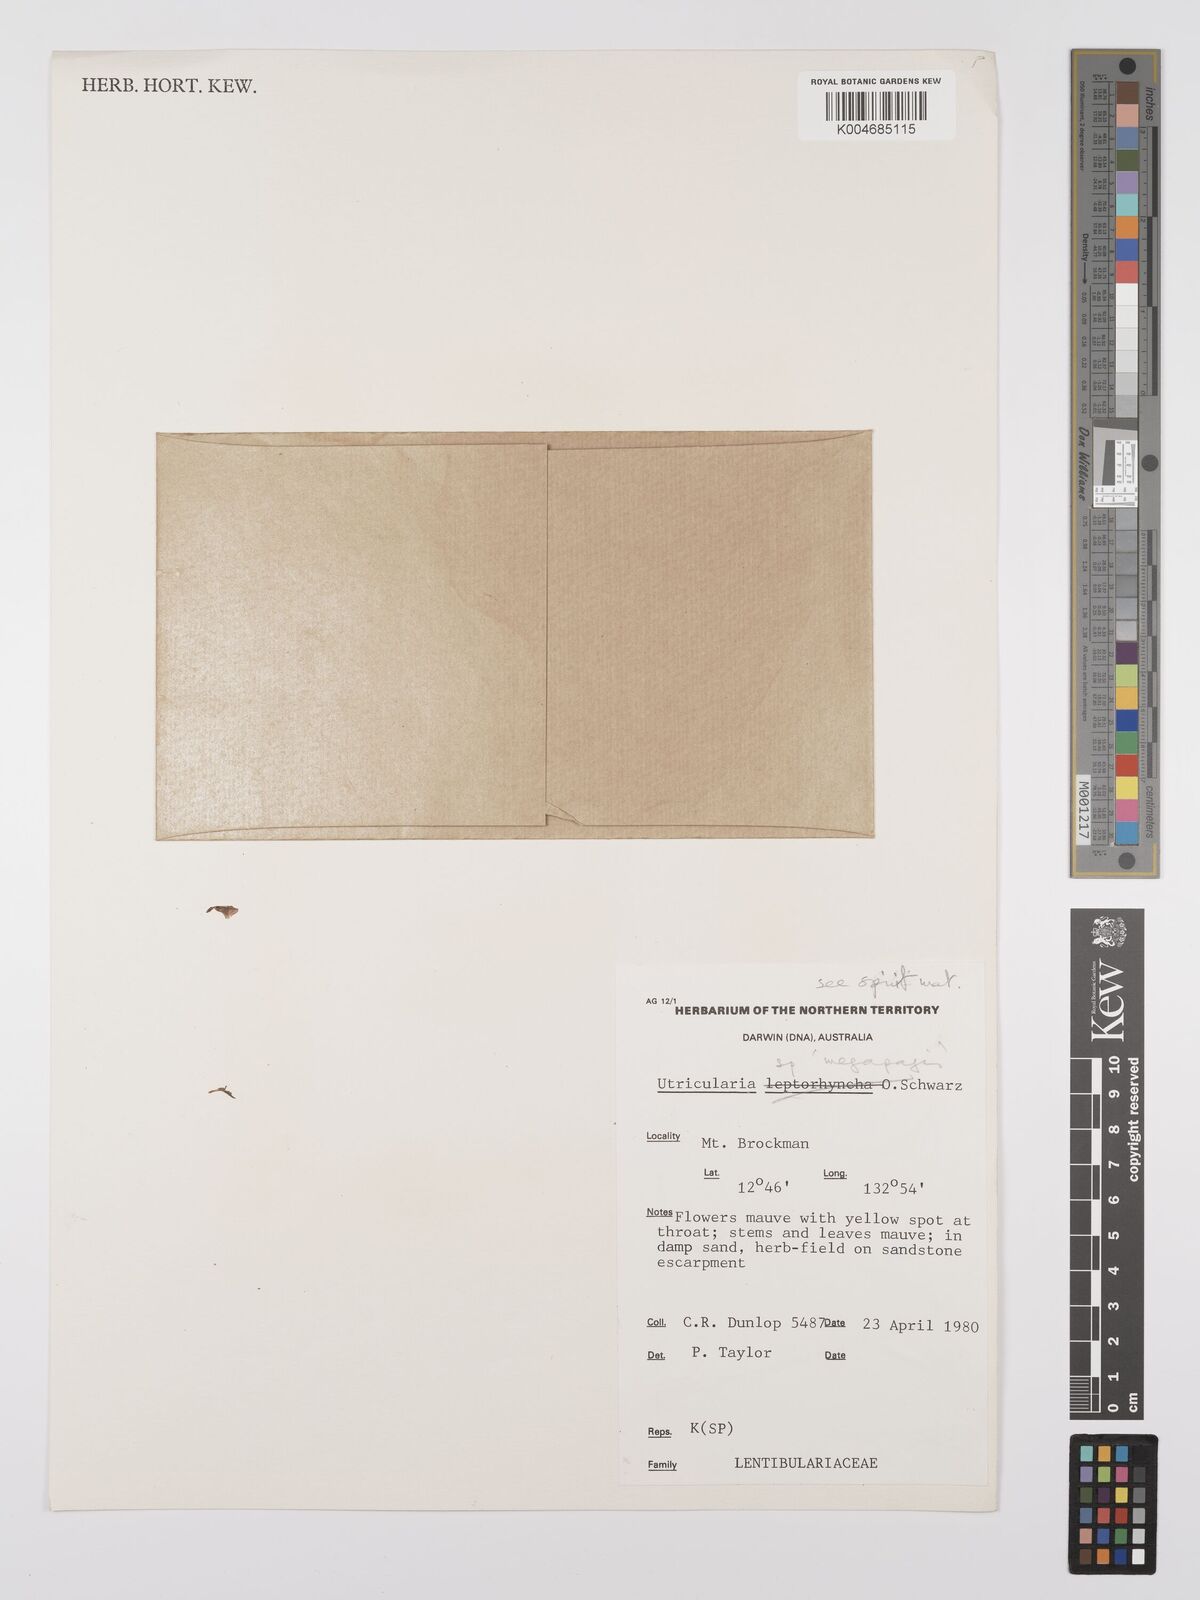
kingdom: Plantae
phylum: Tracheophyta
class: Magnoliopsida
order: Lamiales
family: Lentibulariaceae
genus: Utricularia
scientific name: Utricularia arnhemica
